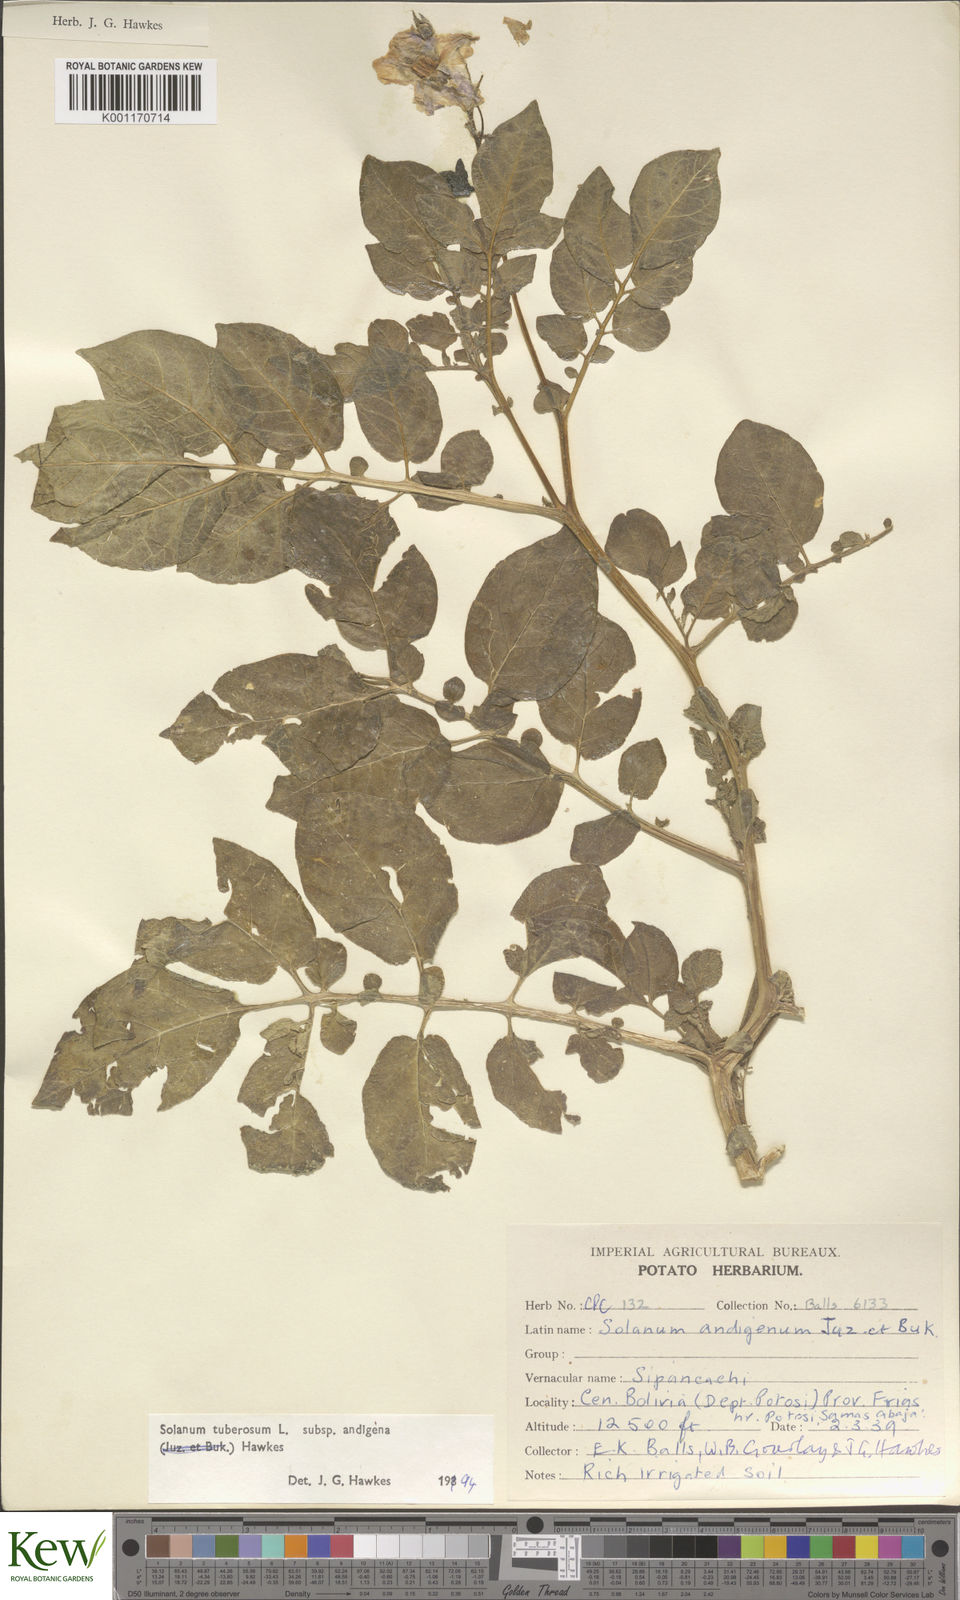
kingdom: Plantae
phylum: Tracheophyta
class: Magnoliopsida
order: Solanales
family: Solanaceae
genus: Solanum
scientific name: Solanum tuberosum
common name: Potato
